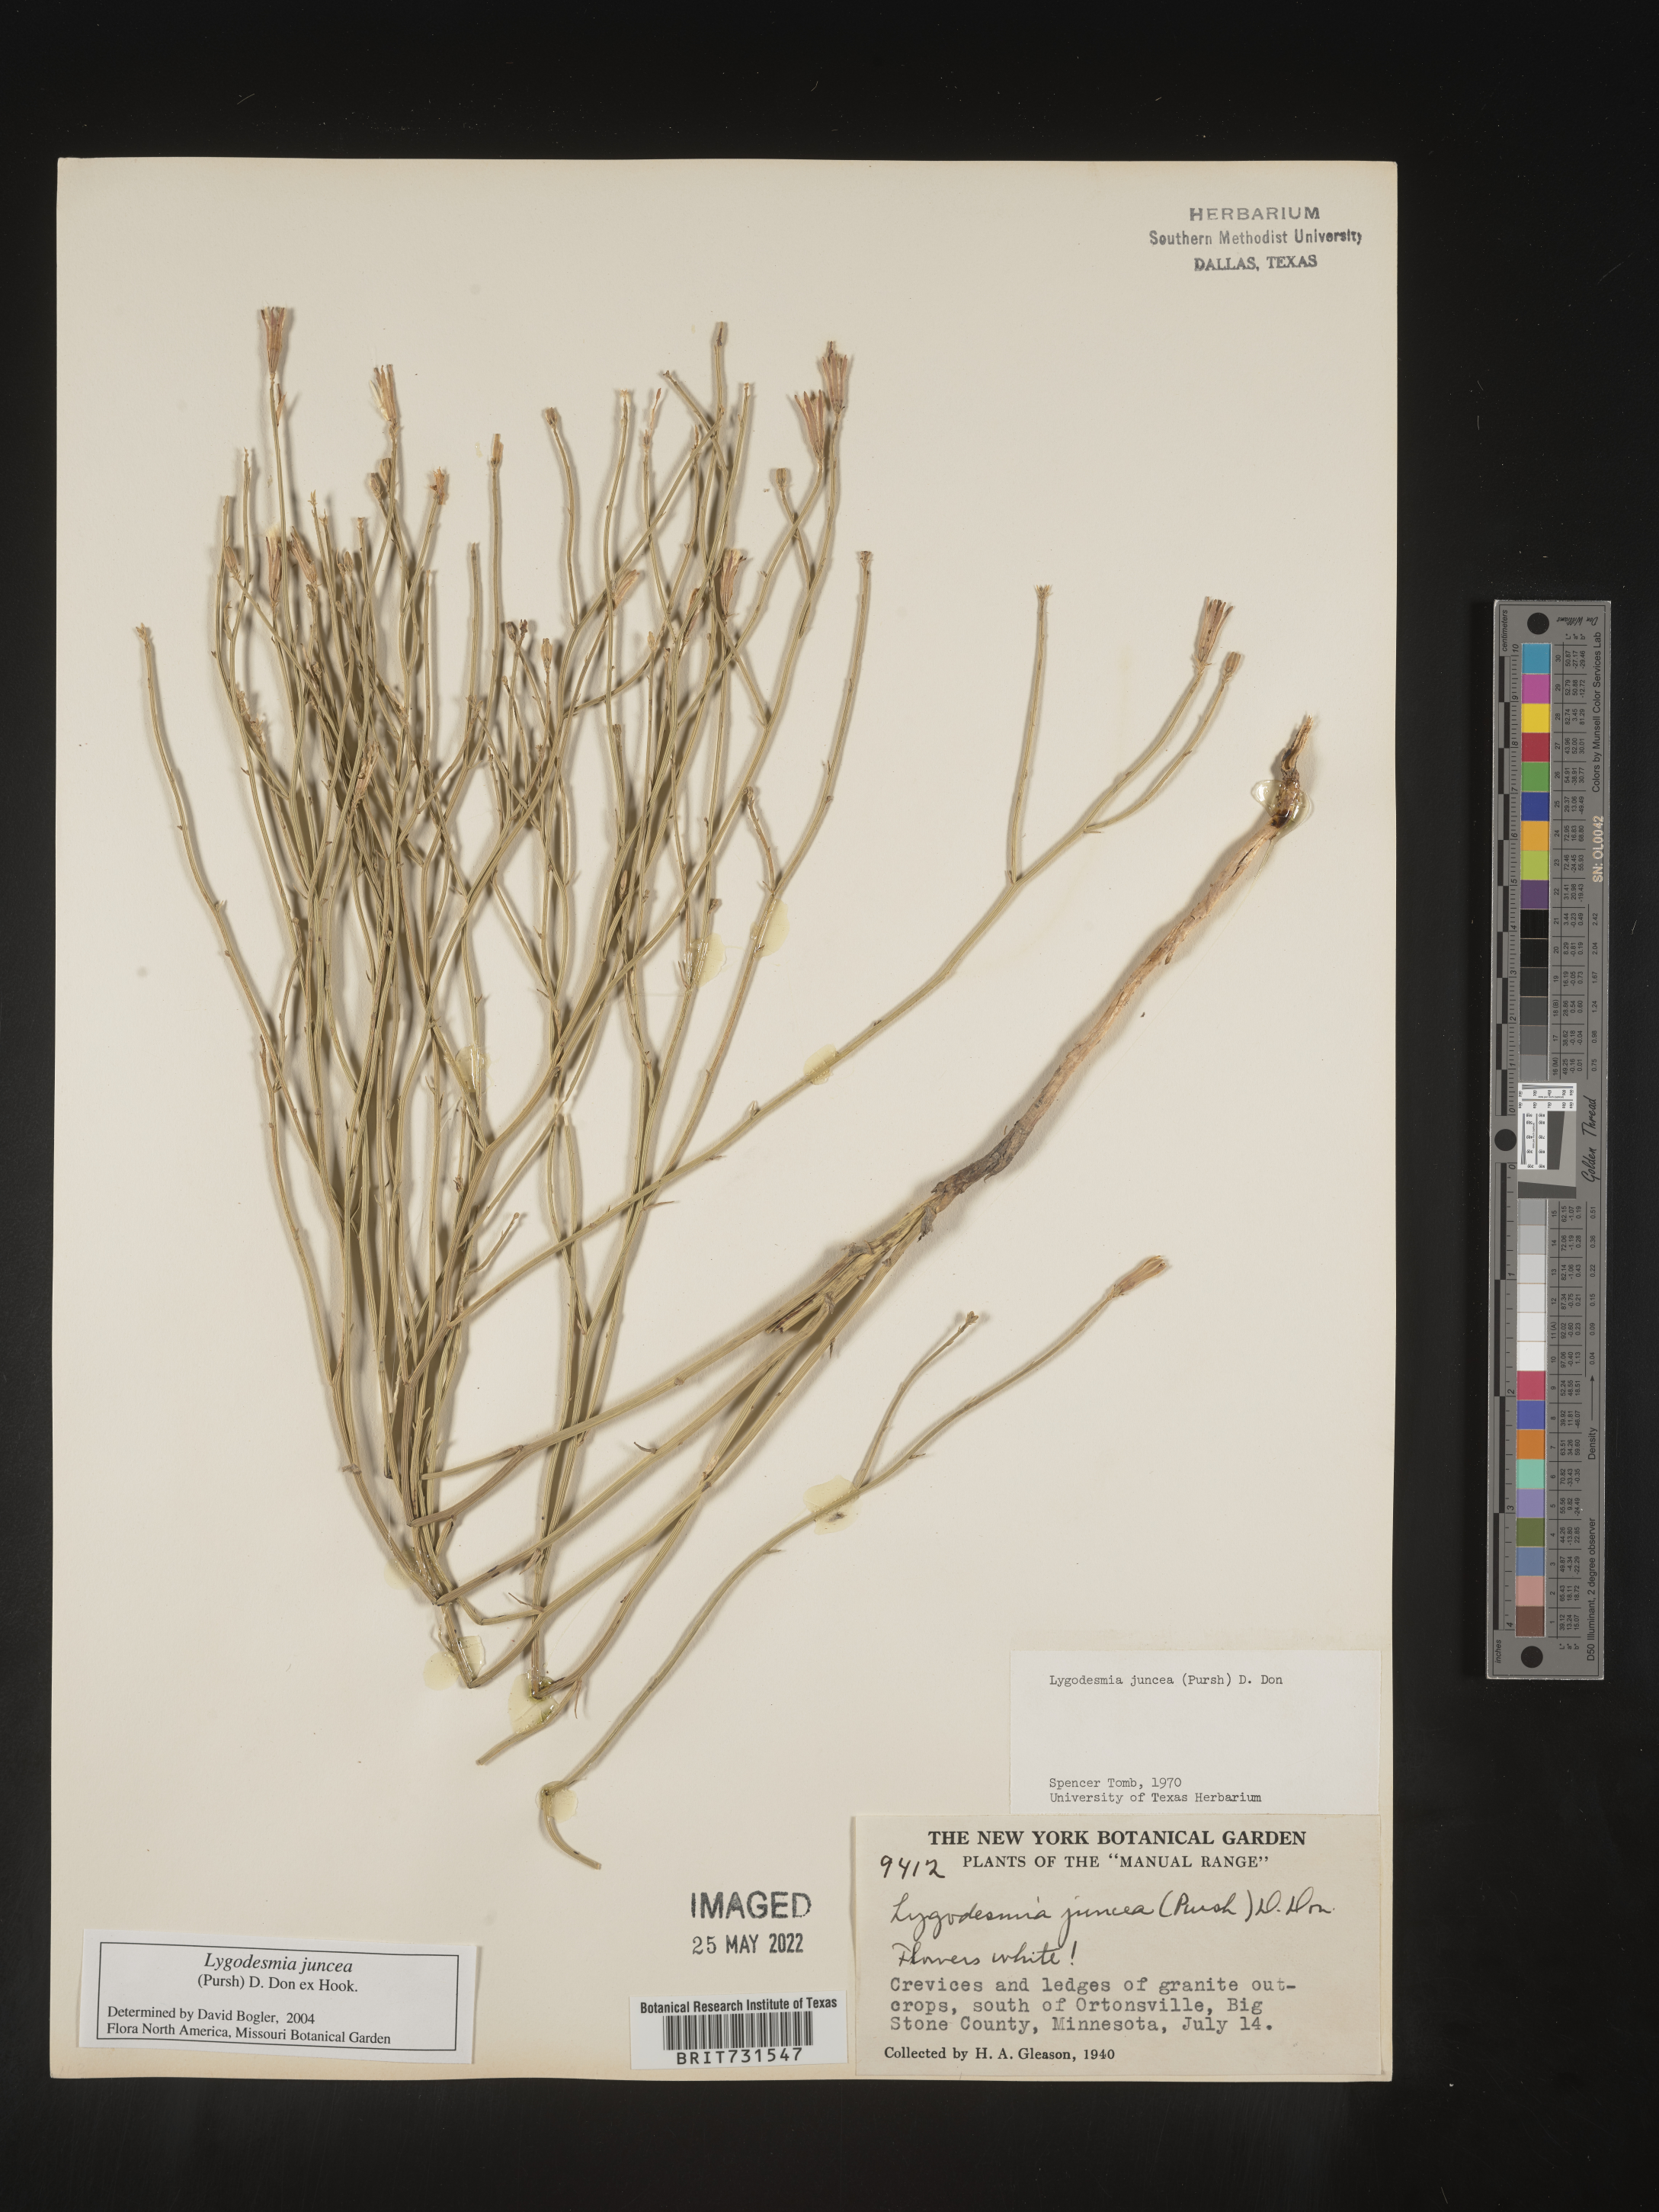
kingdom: Plantae
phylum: Tracheophyta
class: Magnoliopsida
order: Asterales
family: Asteraceae
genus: Lygodesmia
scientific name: Lygodesmia juncea
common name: Common skeletonweed
